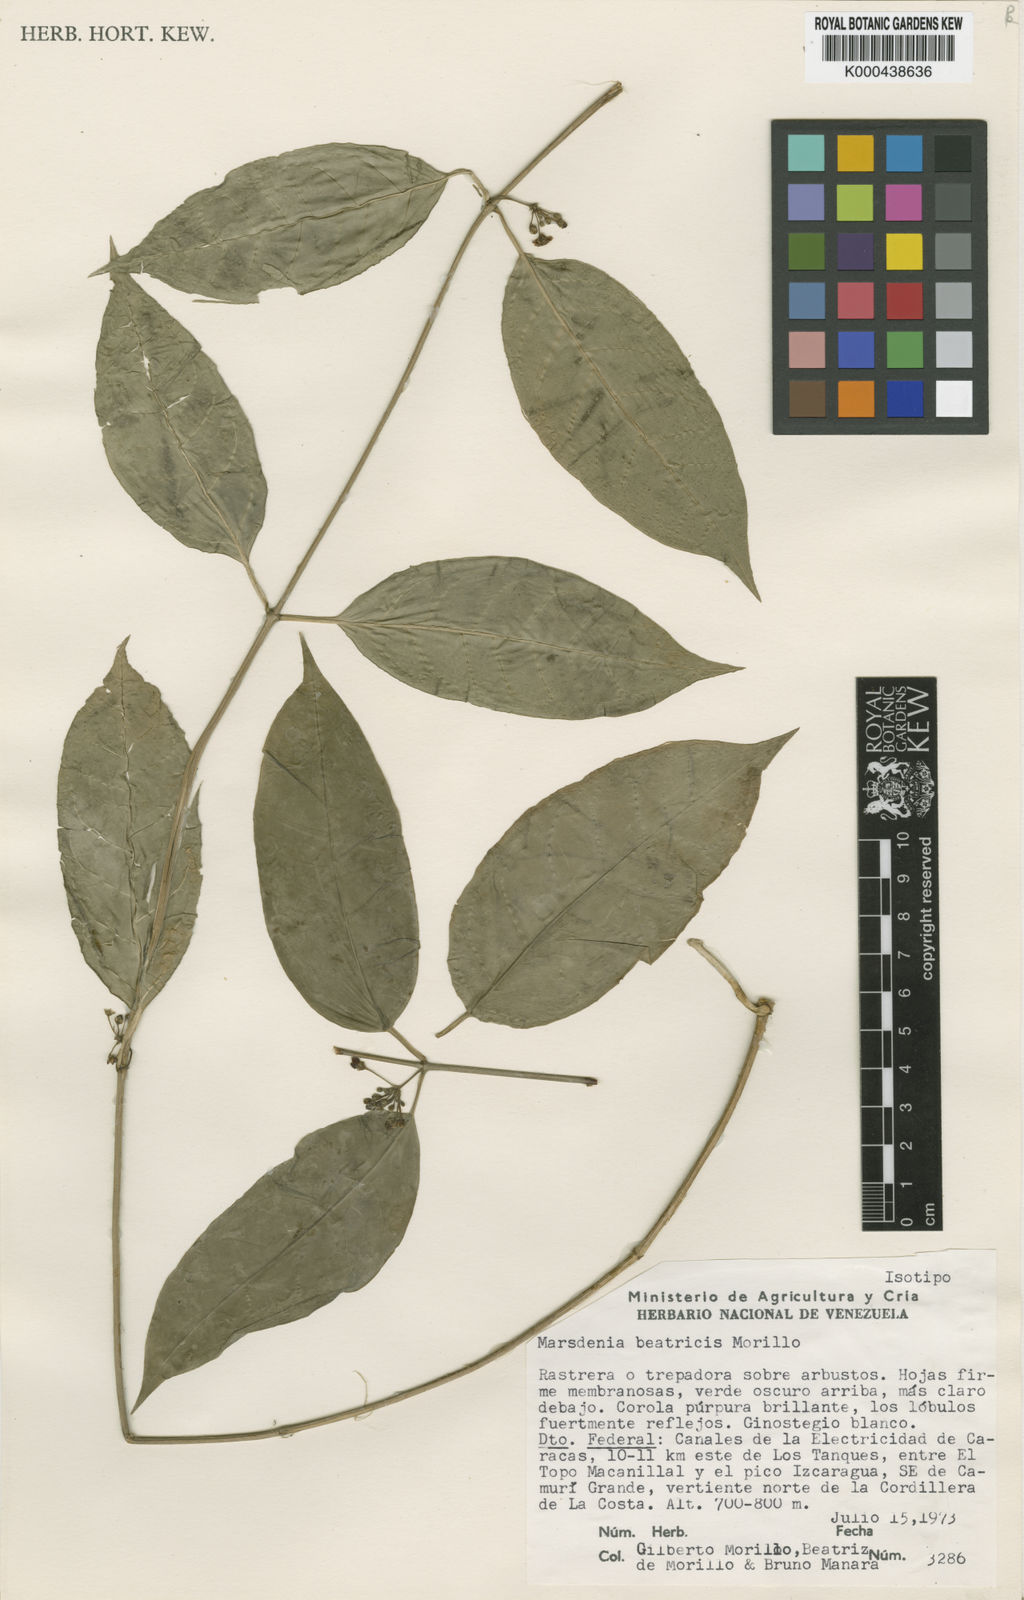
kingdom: Plantae
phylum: Tracheophyta
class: Magnoliopsida
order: Gentianales
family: Apocynaceae
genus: Ruehssia
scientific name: Ruehssia beatricis
